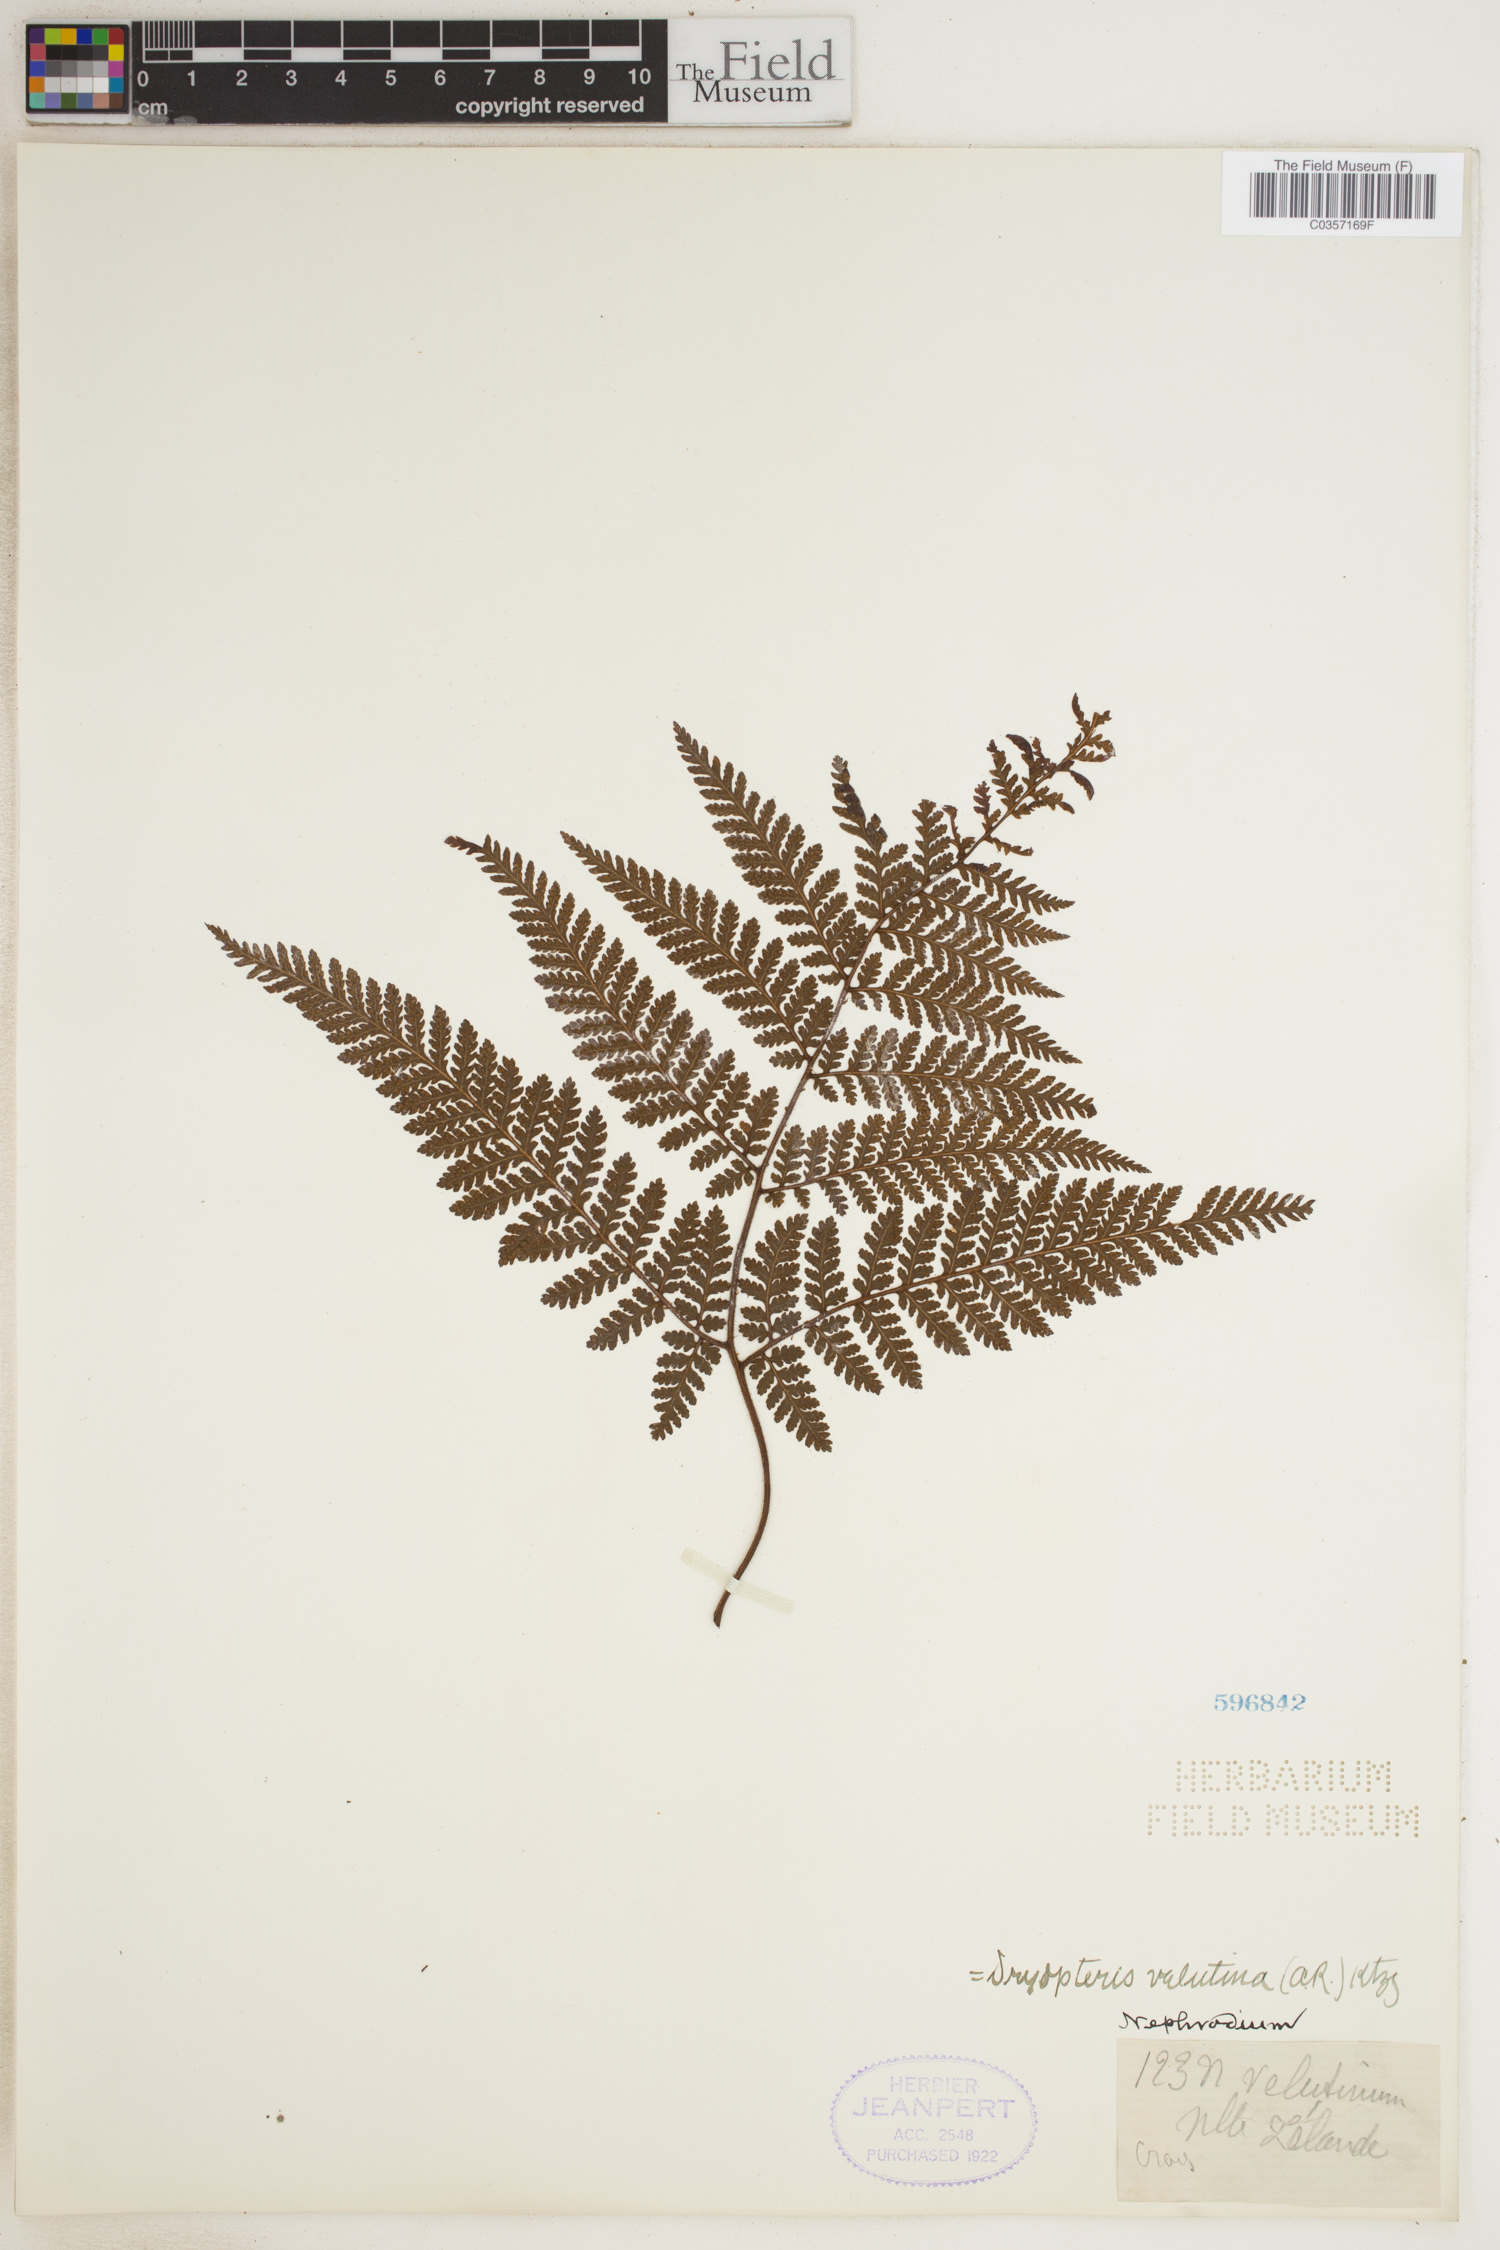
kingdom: Plantae
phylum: Tracheophyta
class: Polypodiopsida
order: Polypodiales
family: Dryopteridaceae
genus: Lastreopsis
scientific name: Lastreopsis velutina
